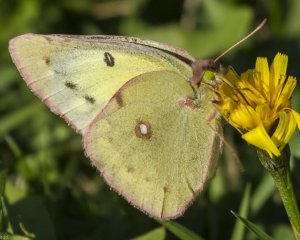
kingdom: Animalia
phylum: Arthropoda
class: Insecta
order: Lepidoptera
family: Pieridae
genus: Colias
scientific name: Colias eurytheme
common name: Orange Sulphur
